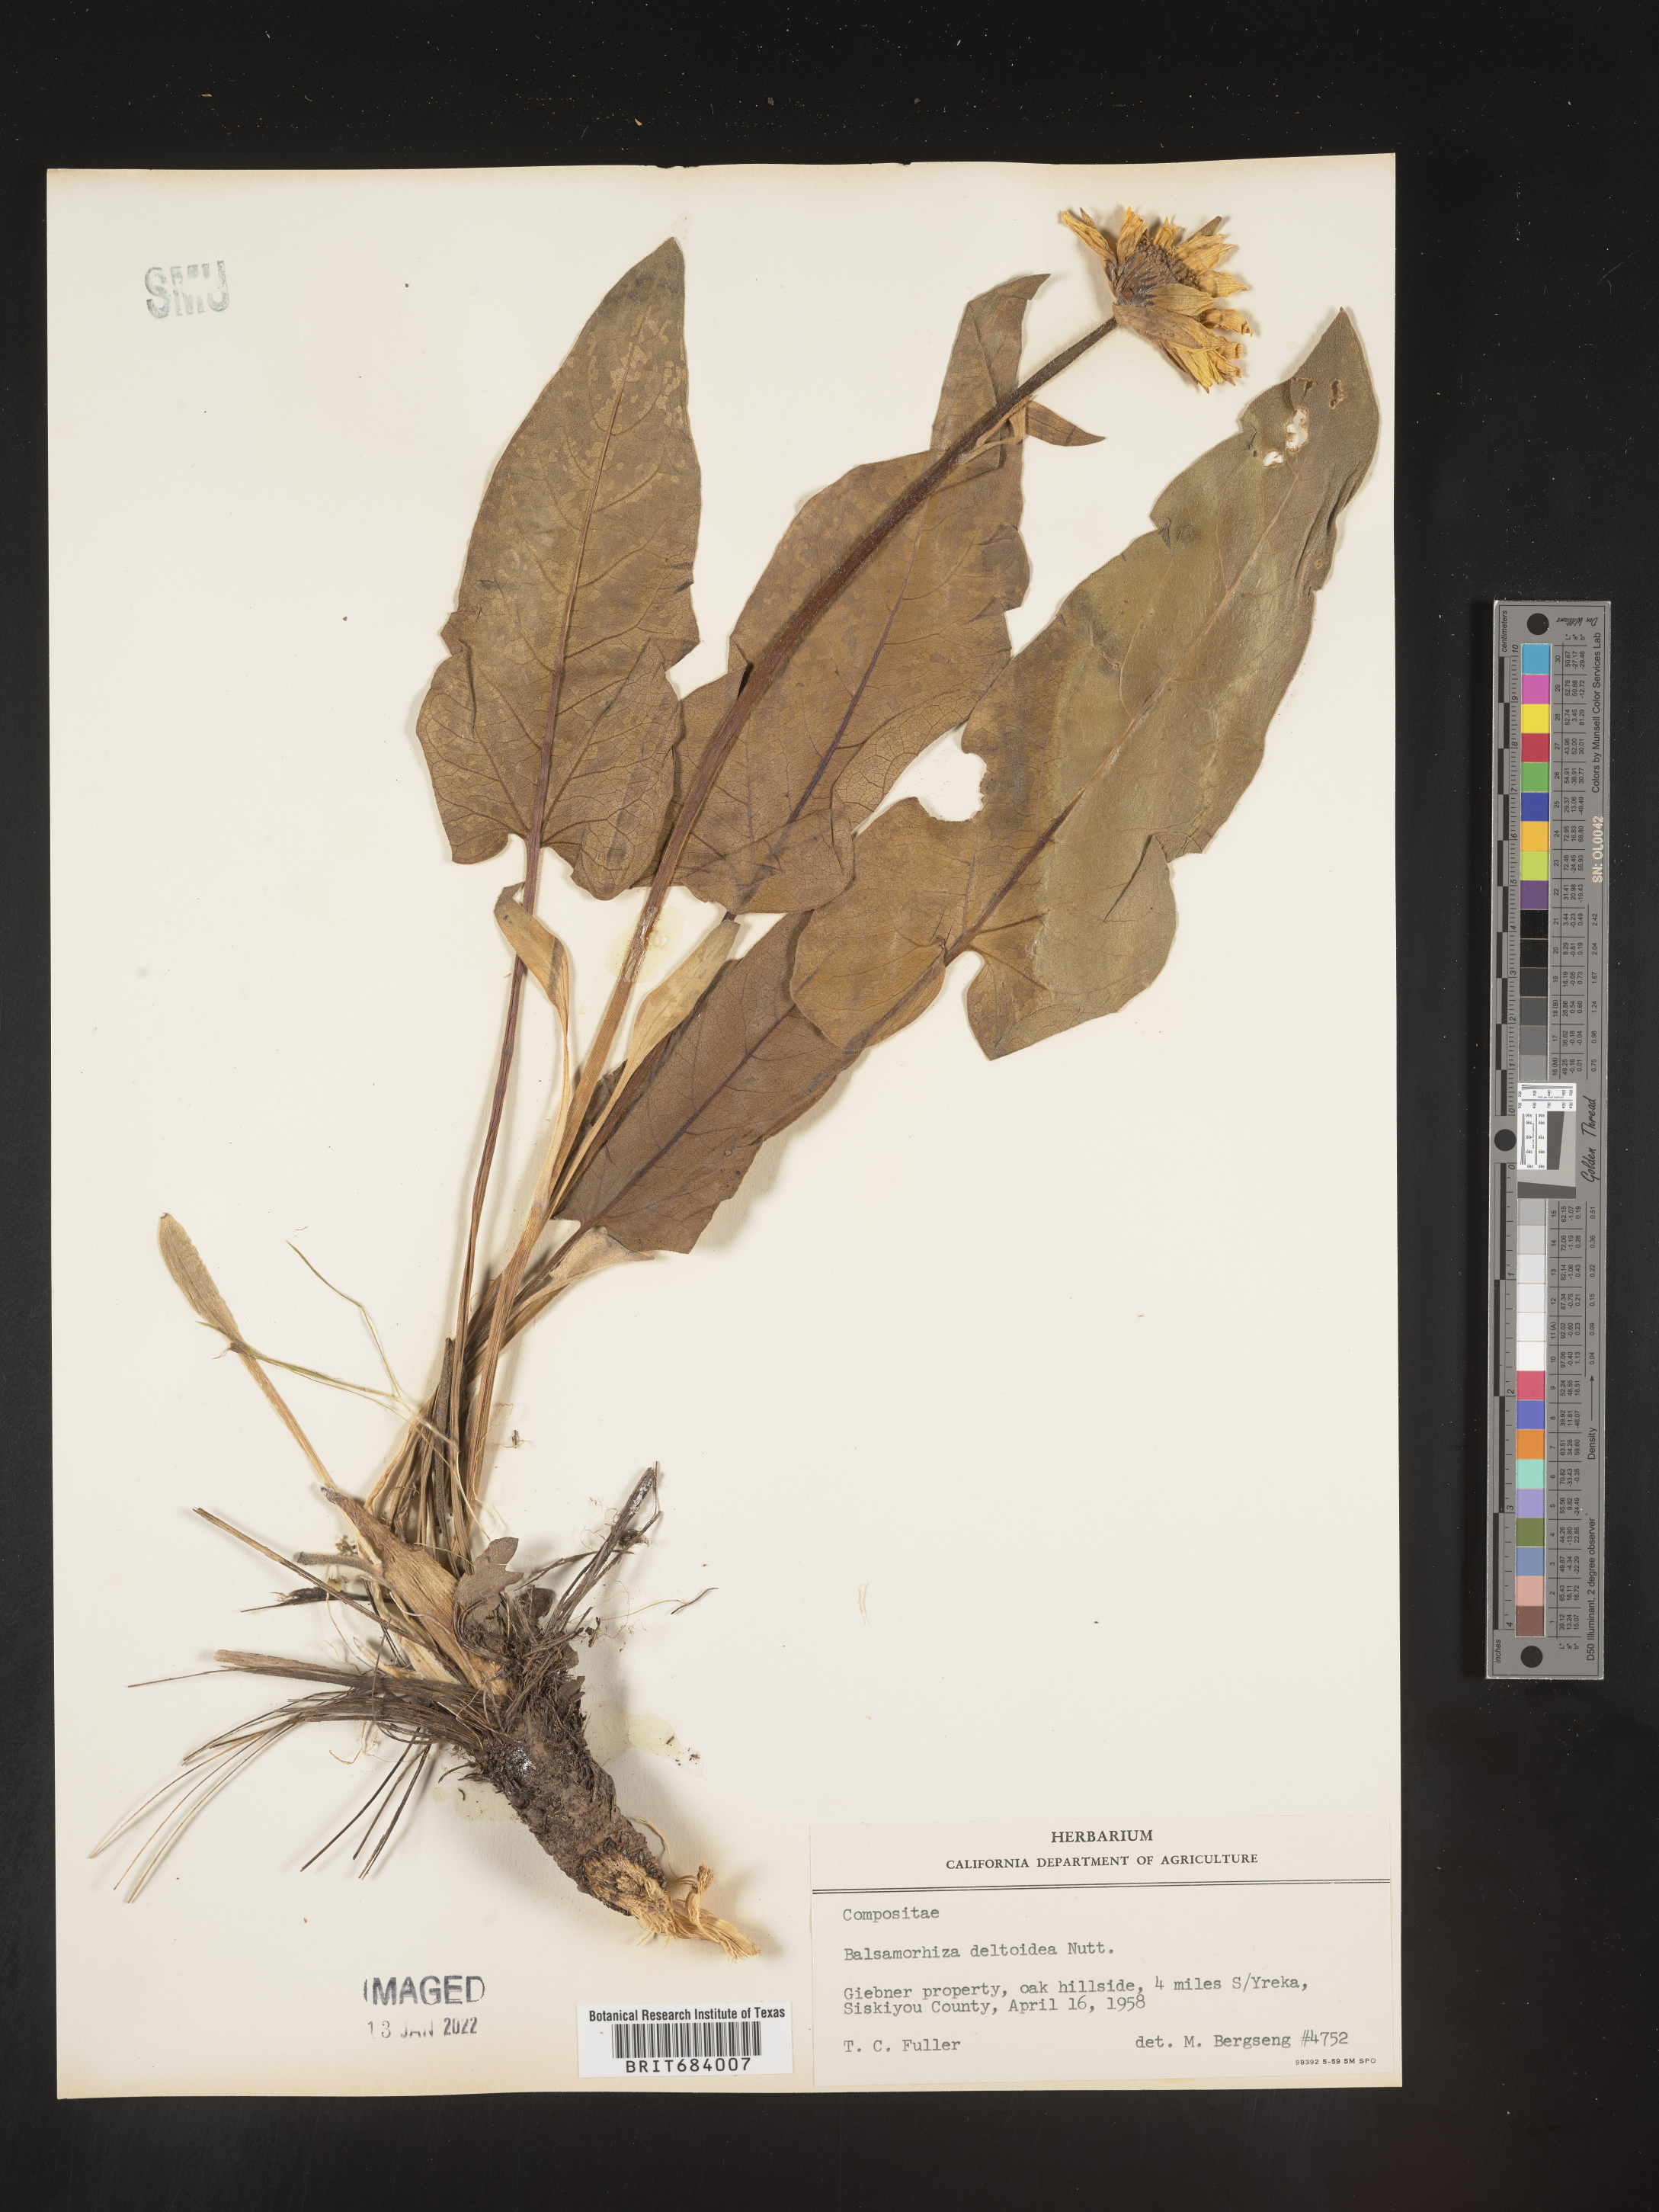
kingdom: Plantae
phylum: Tracheophyta
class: Magnoliopsida
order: Asterales
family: Asteraceae
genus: Balsamorhiza
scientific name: Balsamorhiza
